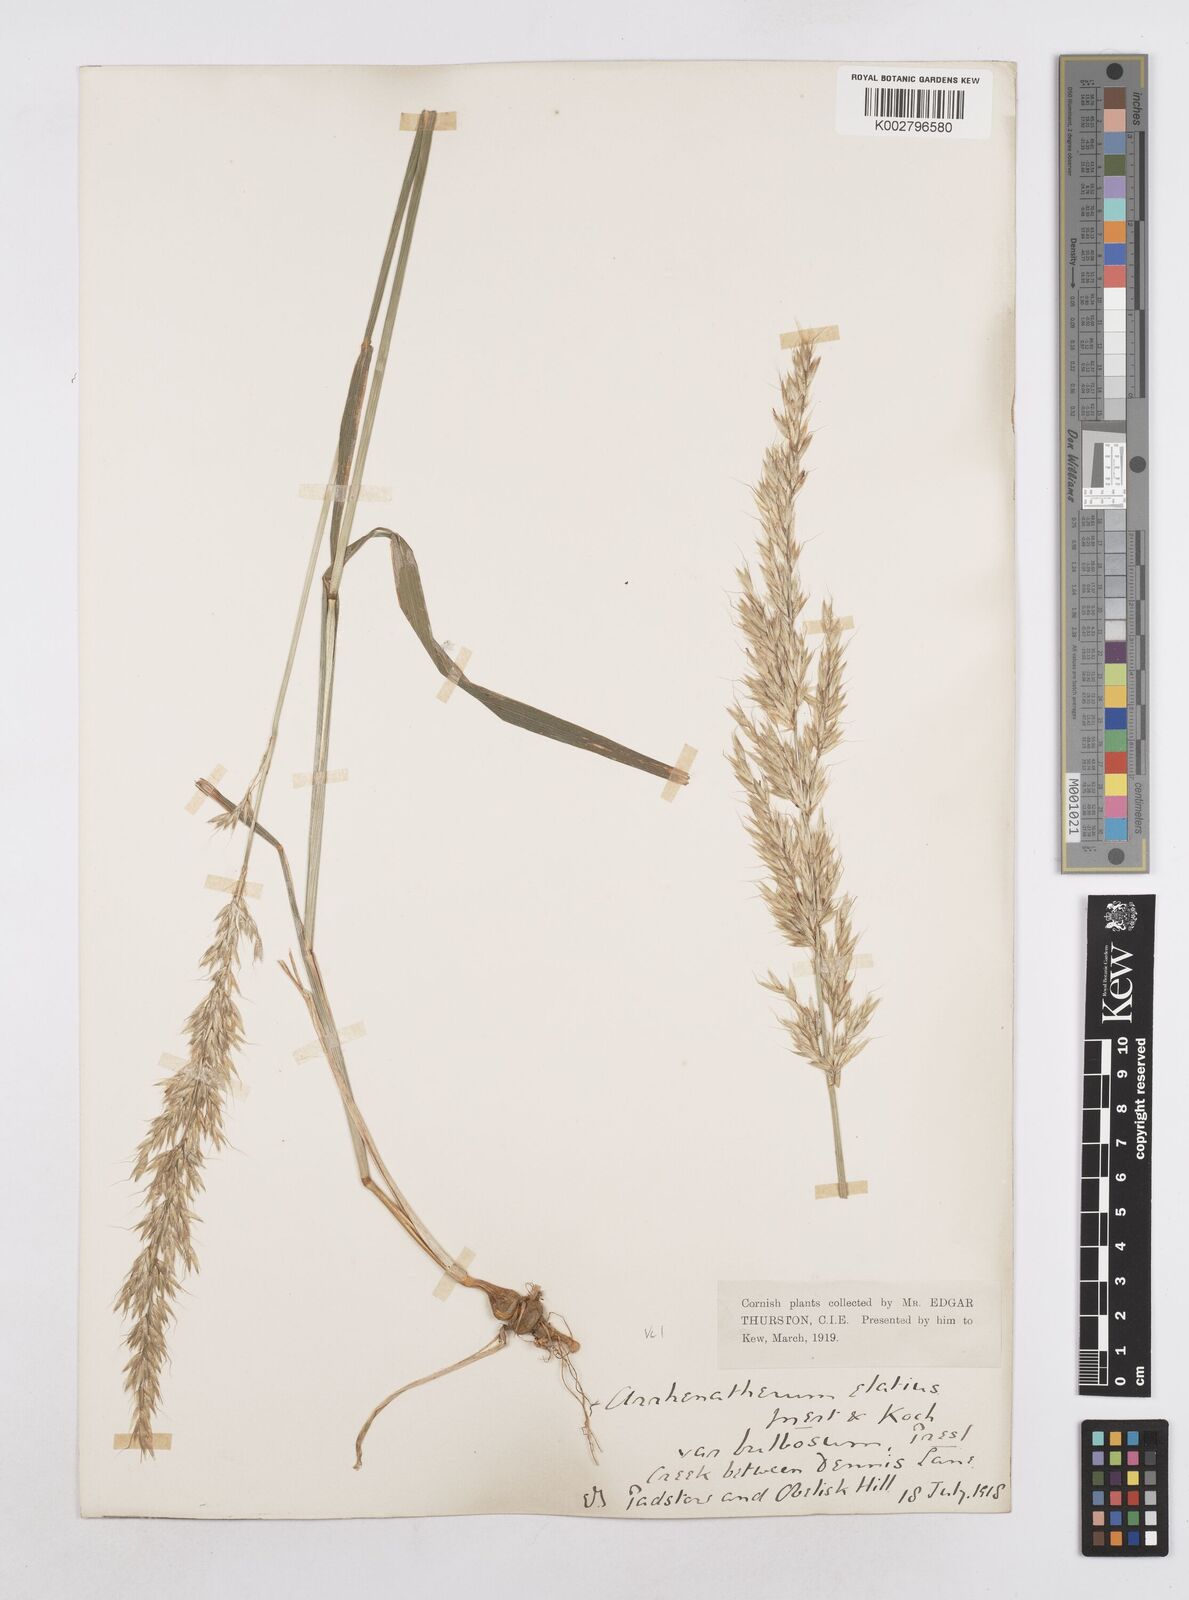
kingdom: Plantae
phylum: Tracheophyta
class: Liliopsida
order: Poales
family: Poaceae
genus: Arrhenatherum
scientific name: Arrhenatherum elatius
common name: Tall oatgrass
